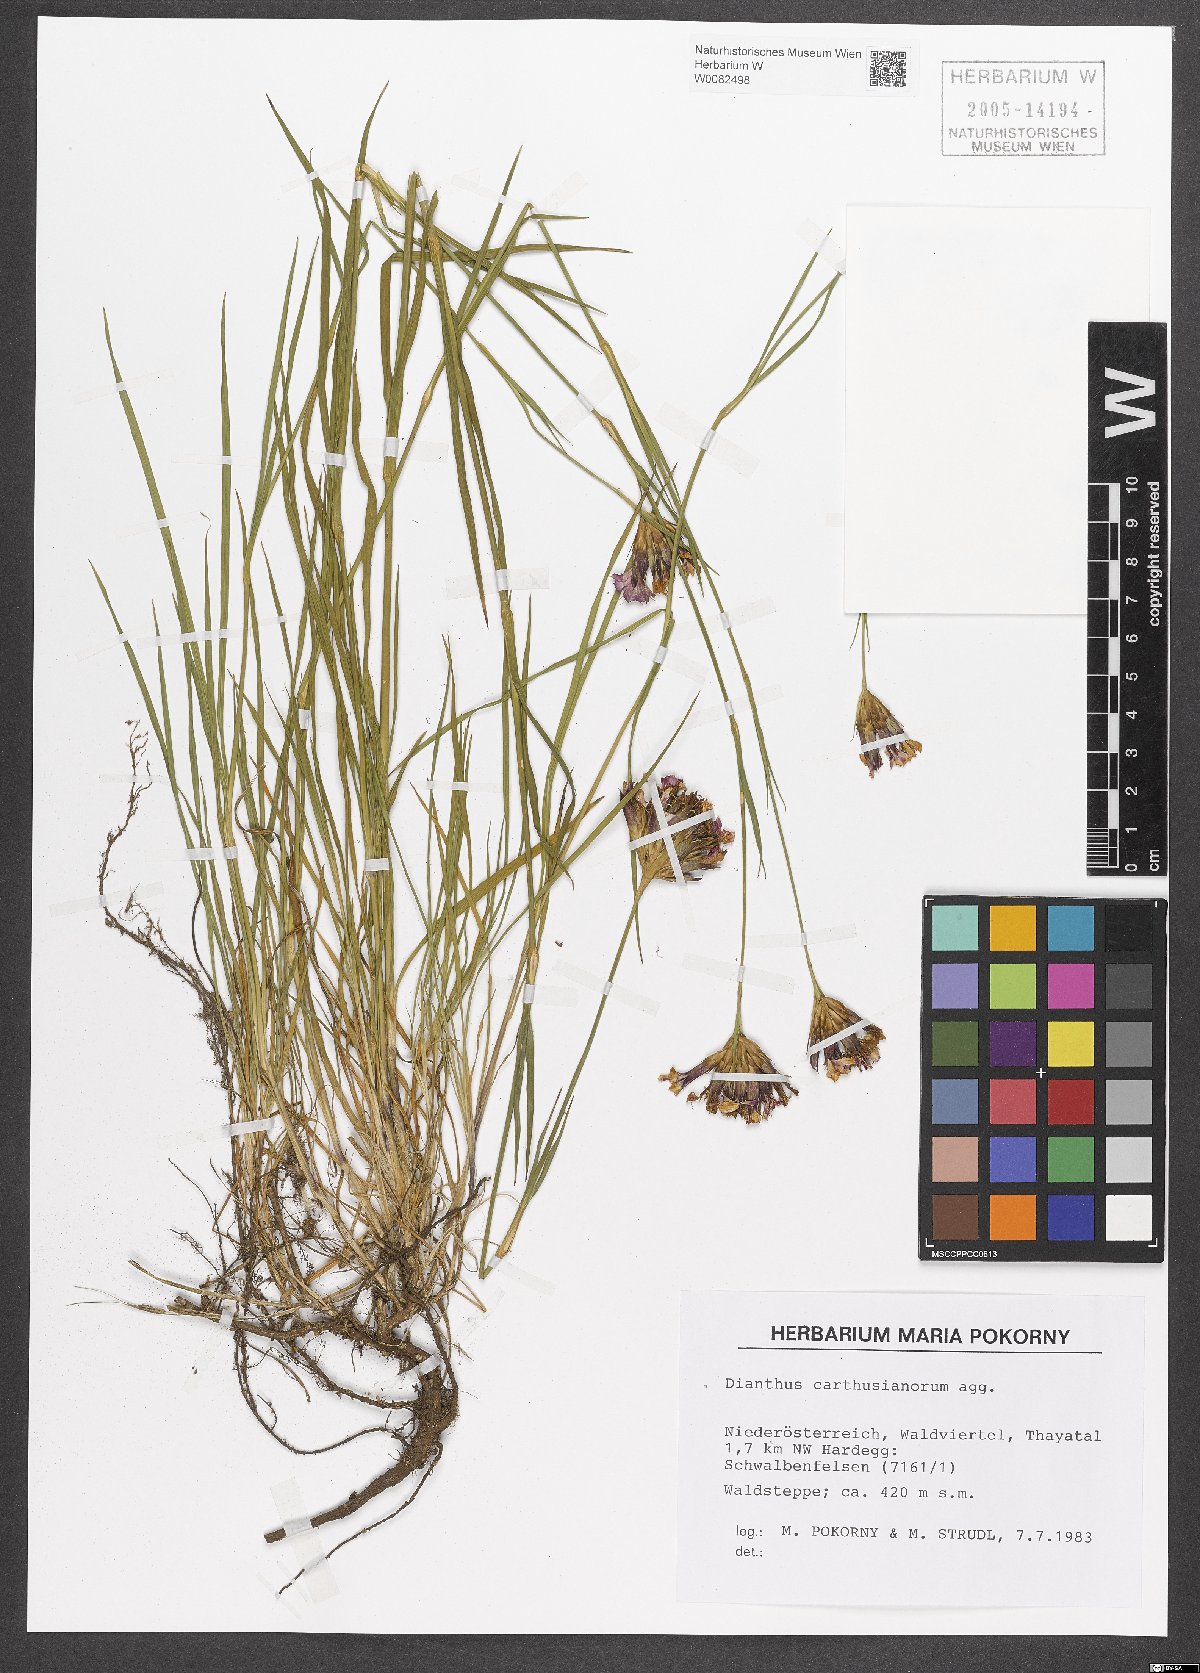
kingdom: Plantae
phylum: Tracheophyta
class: Magnoliopsida
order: Caryophyllales
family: Caryophyllaceae
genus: Dianthus
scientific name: Dianthus carthusianorum
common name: Carthusian pink
